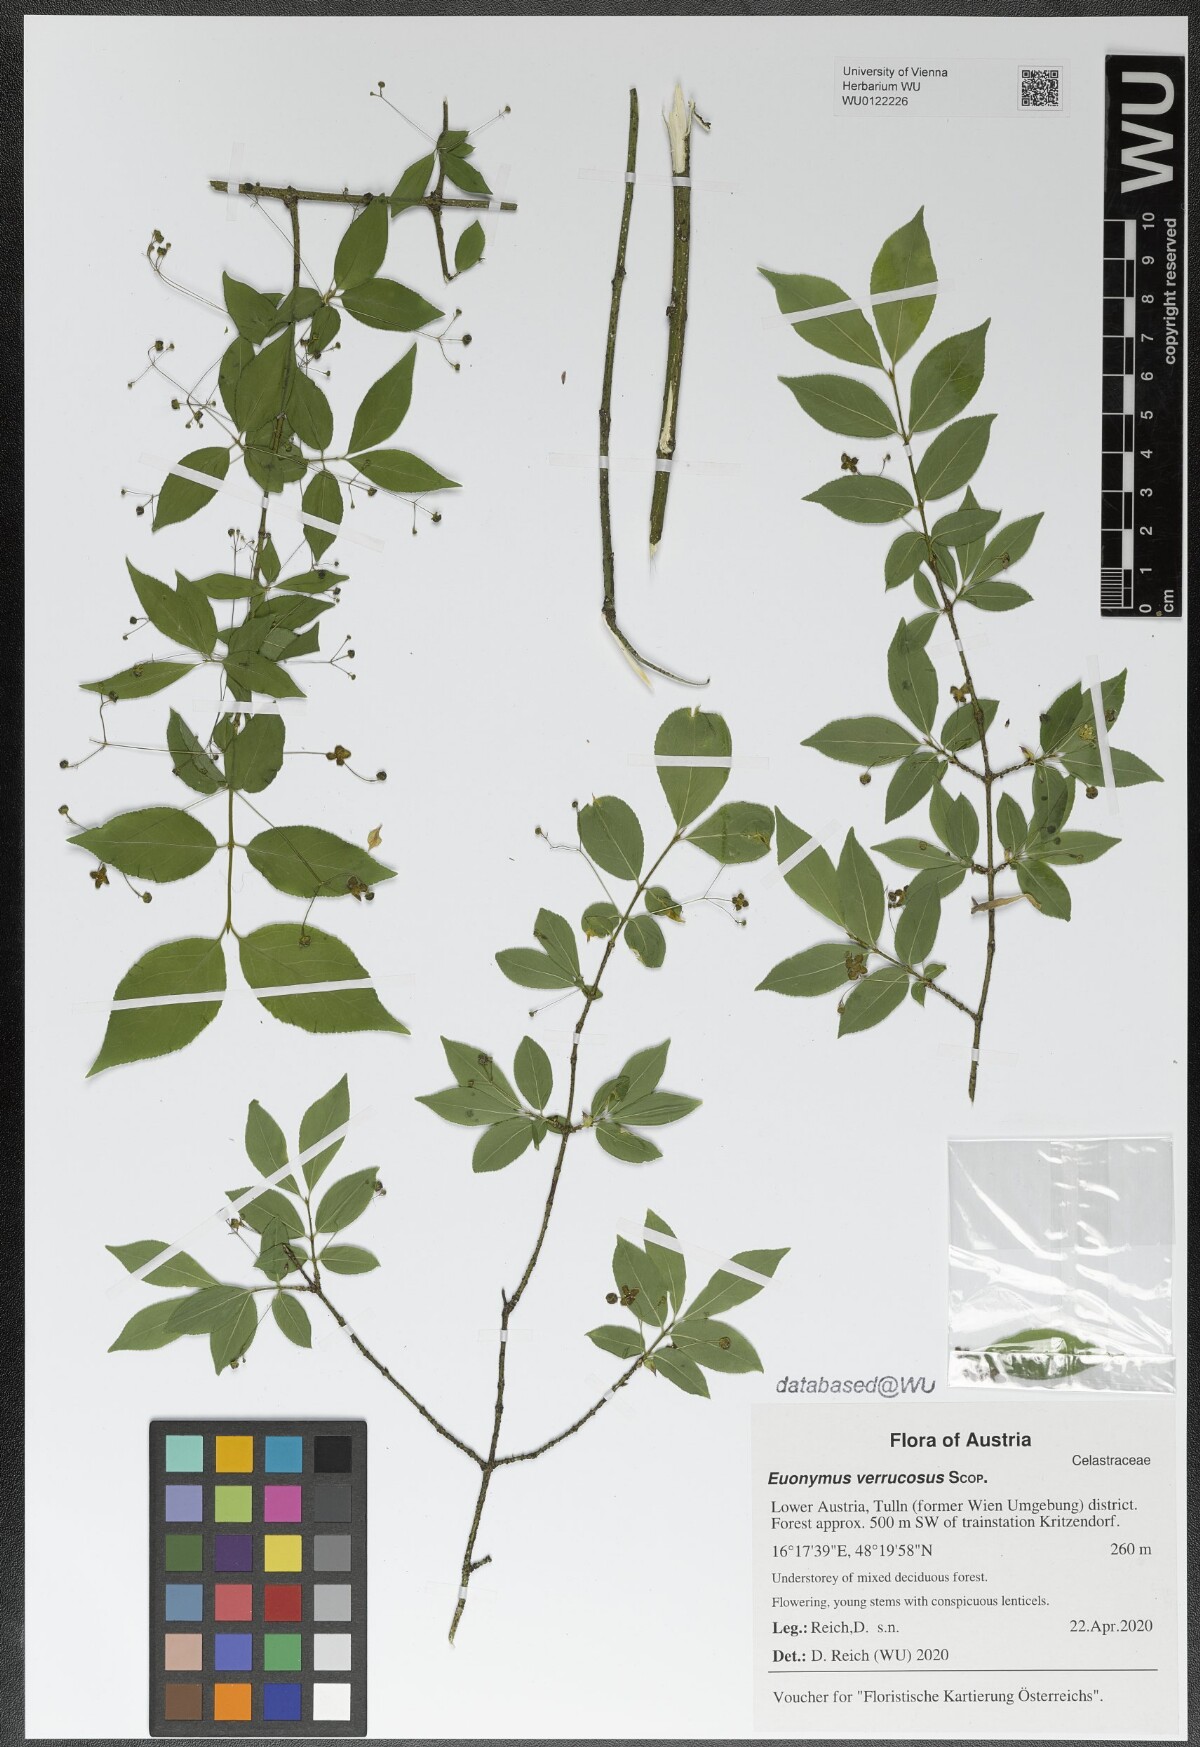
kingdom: Plantae
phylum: Tracheophyta
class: Magnoliopsida
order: Celastrales
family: Celastraceae
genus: Euonymus
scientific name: Euonymus verrucosus
